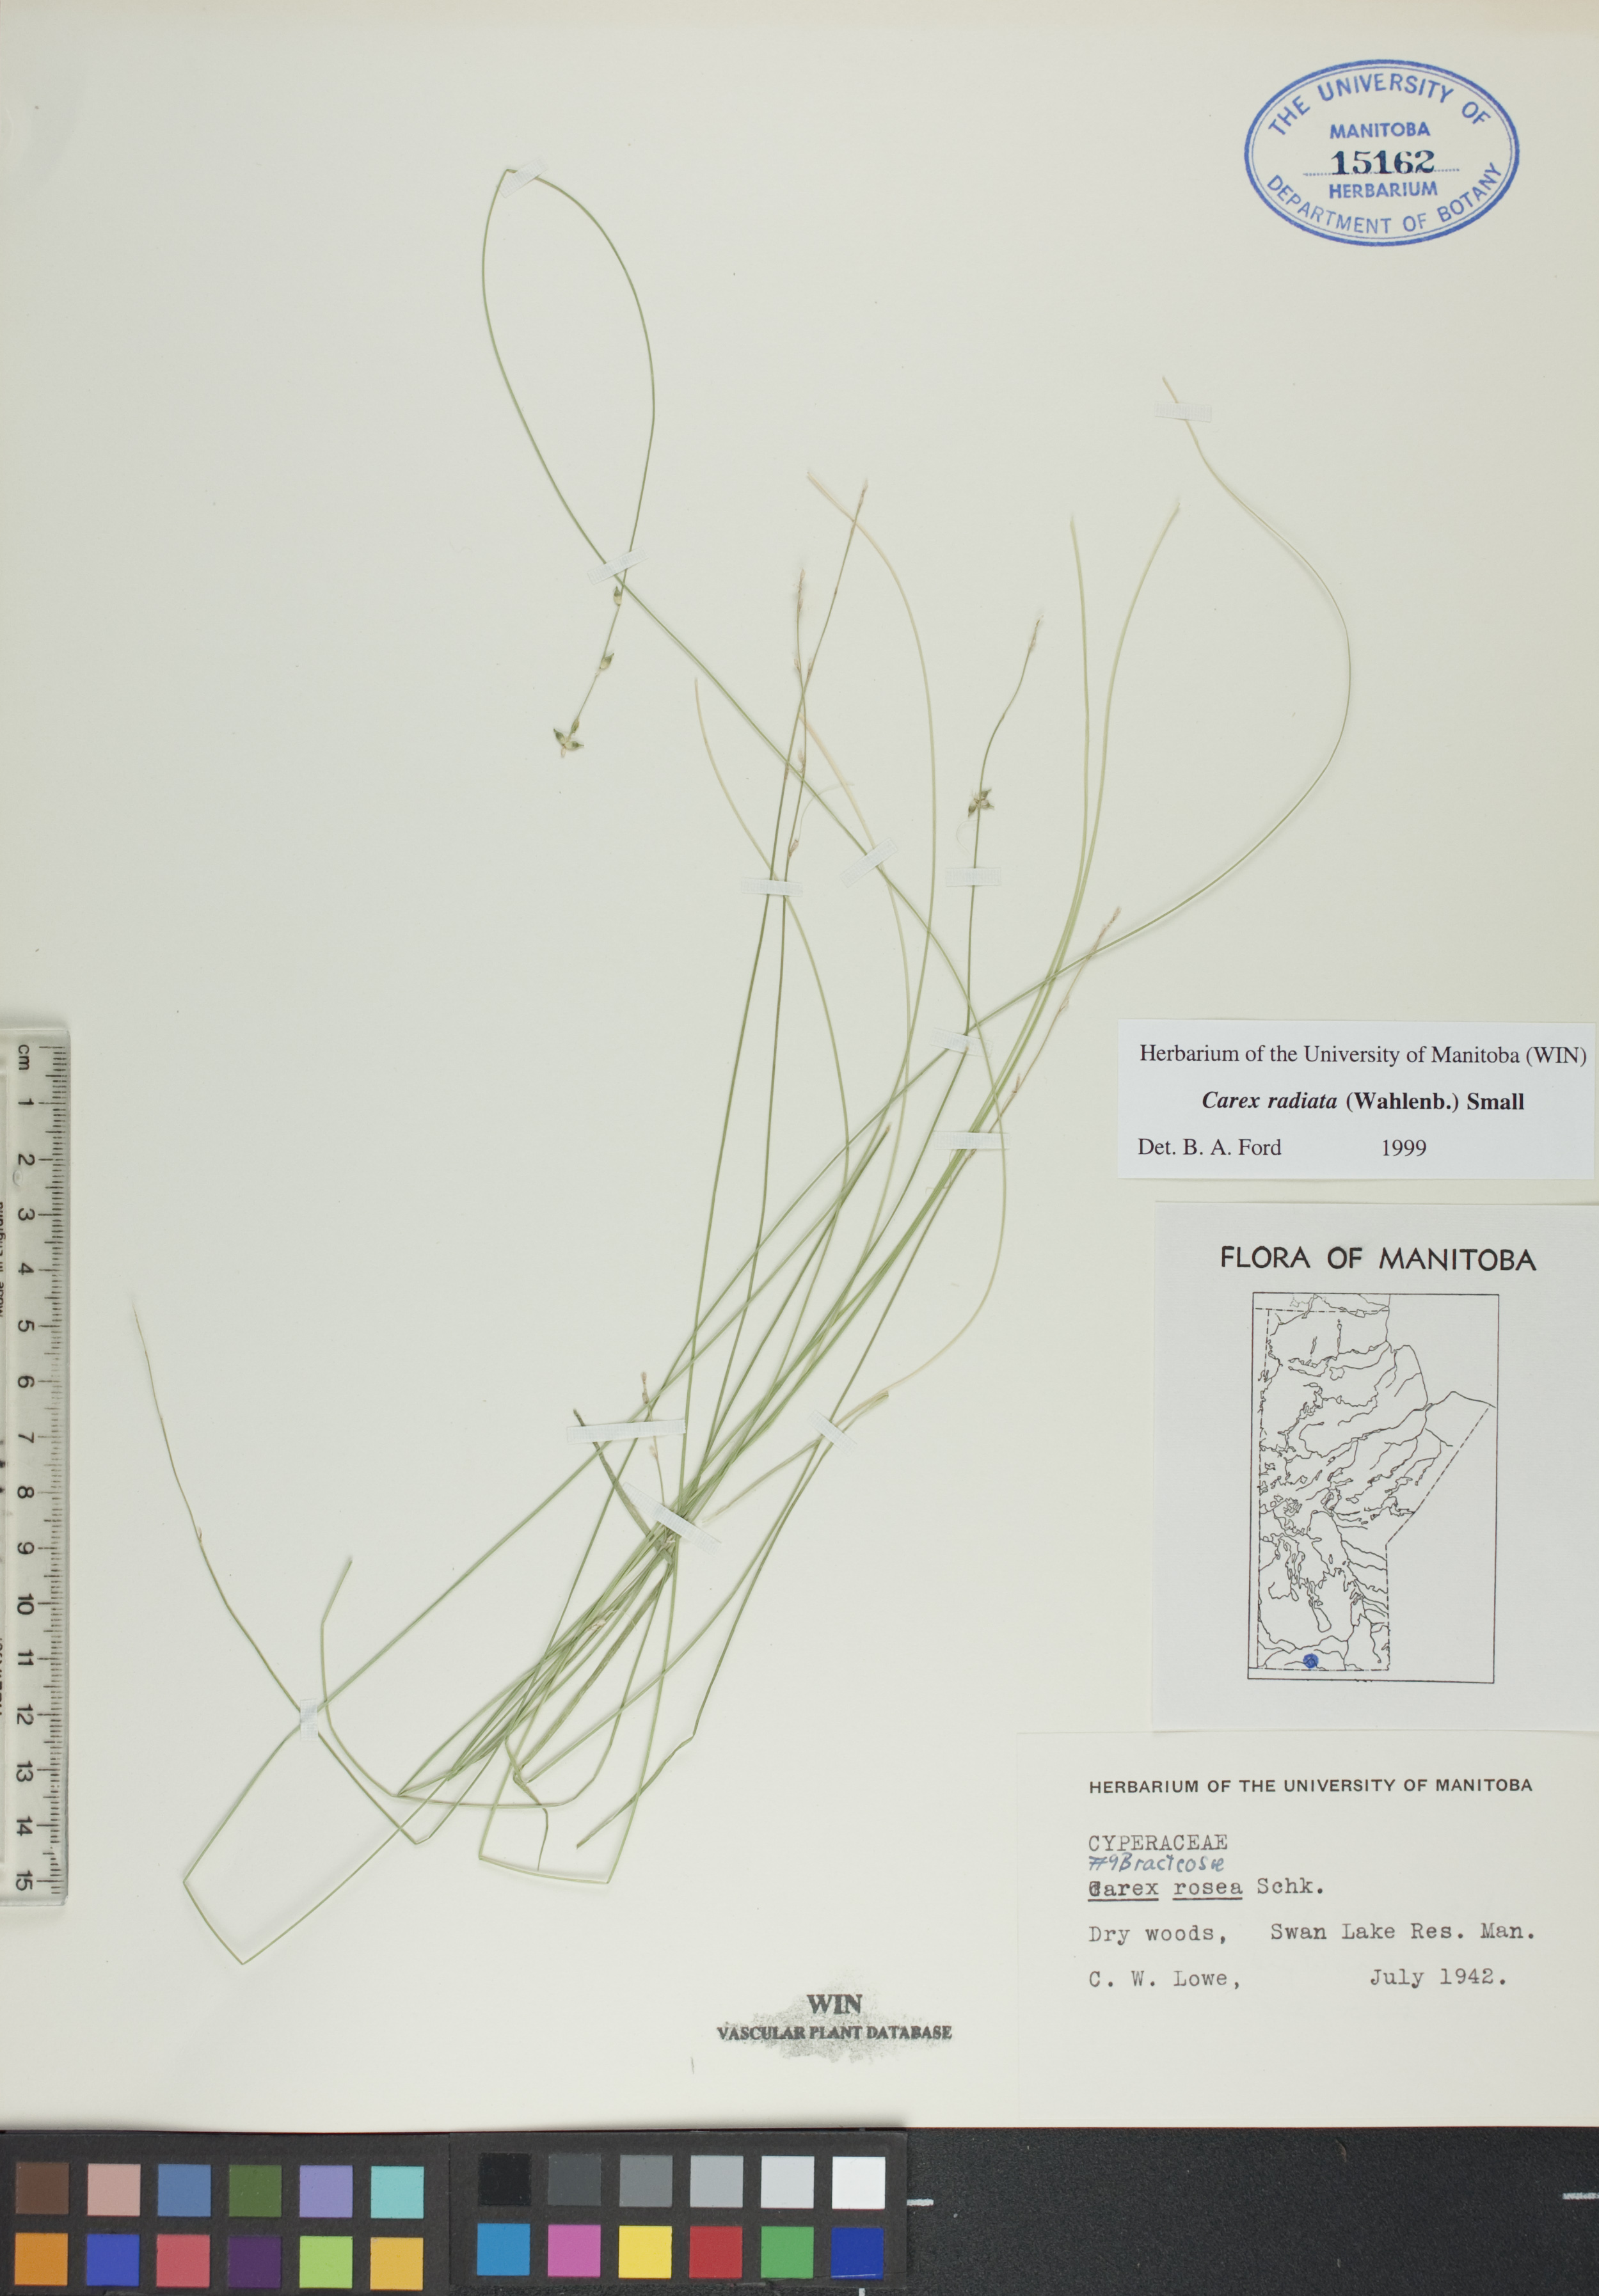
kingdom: Plantae
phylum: Tracheophyta
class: Liliopsida
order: Poales
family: Cyperaceae
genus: Carex
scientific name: Carex radiata
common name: Eastern star sedge
